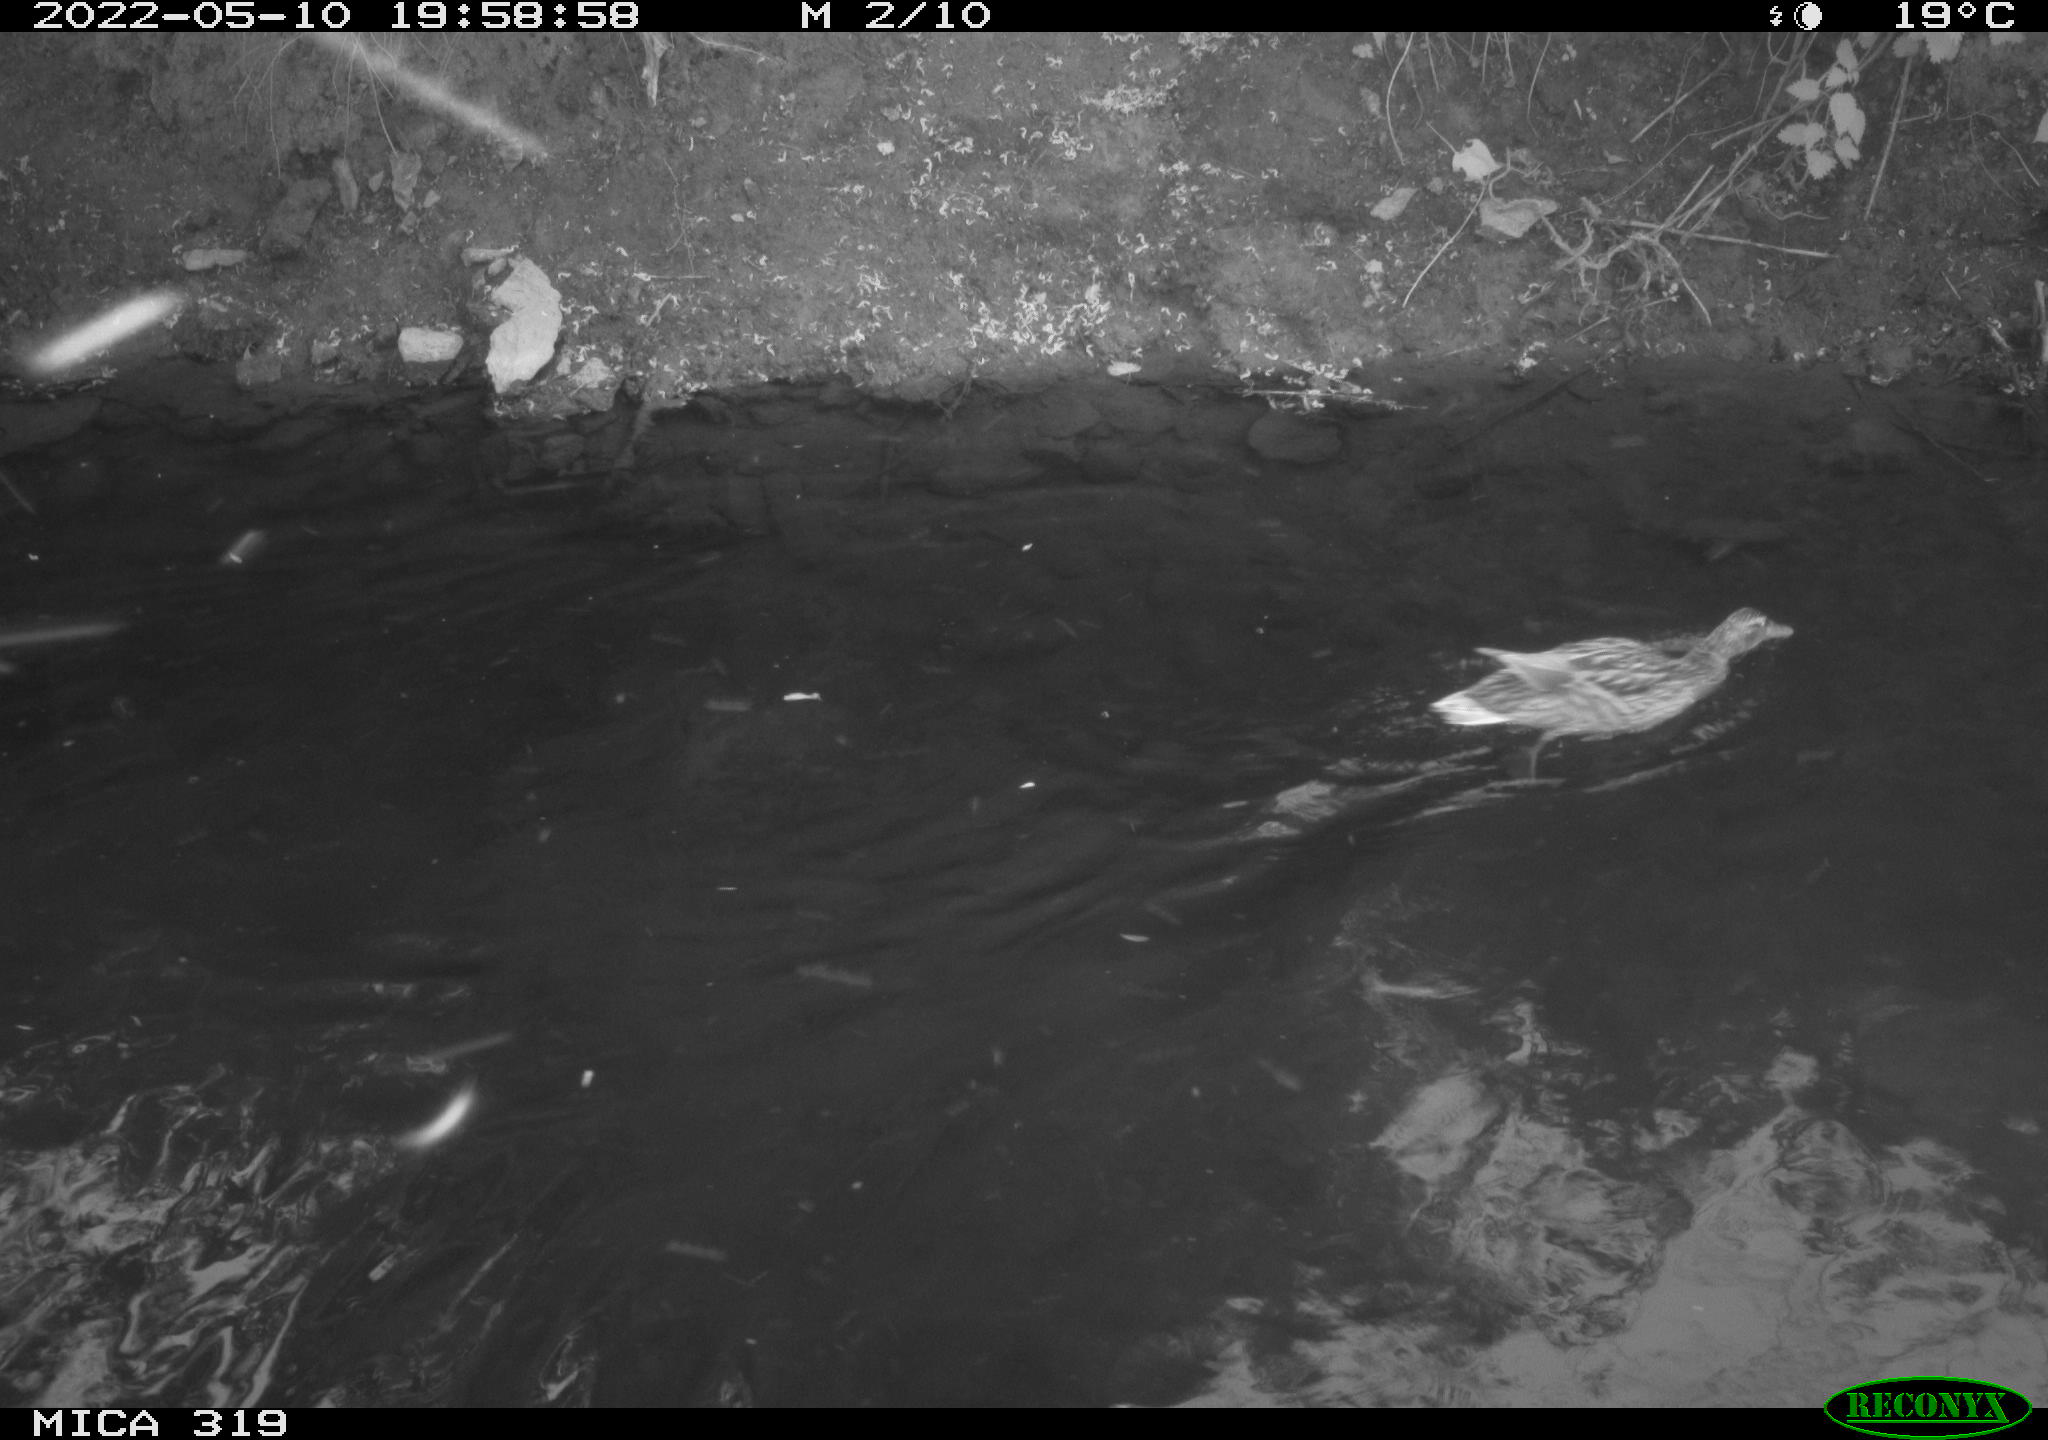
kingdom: Animalia
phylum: Chordata
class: Aves
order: Anseriformes
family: Anatidae
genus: Anas
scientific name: Anas
